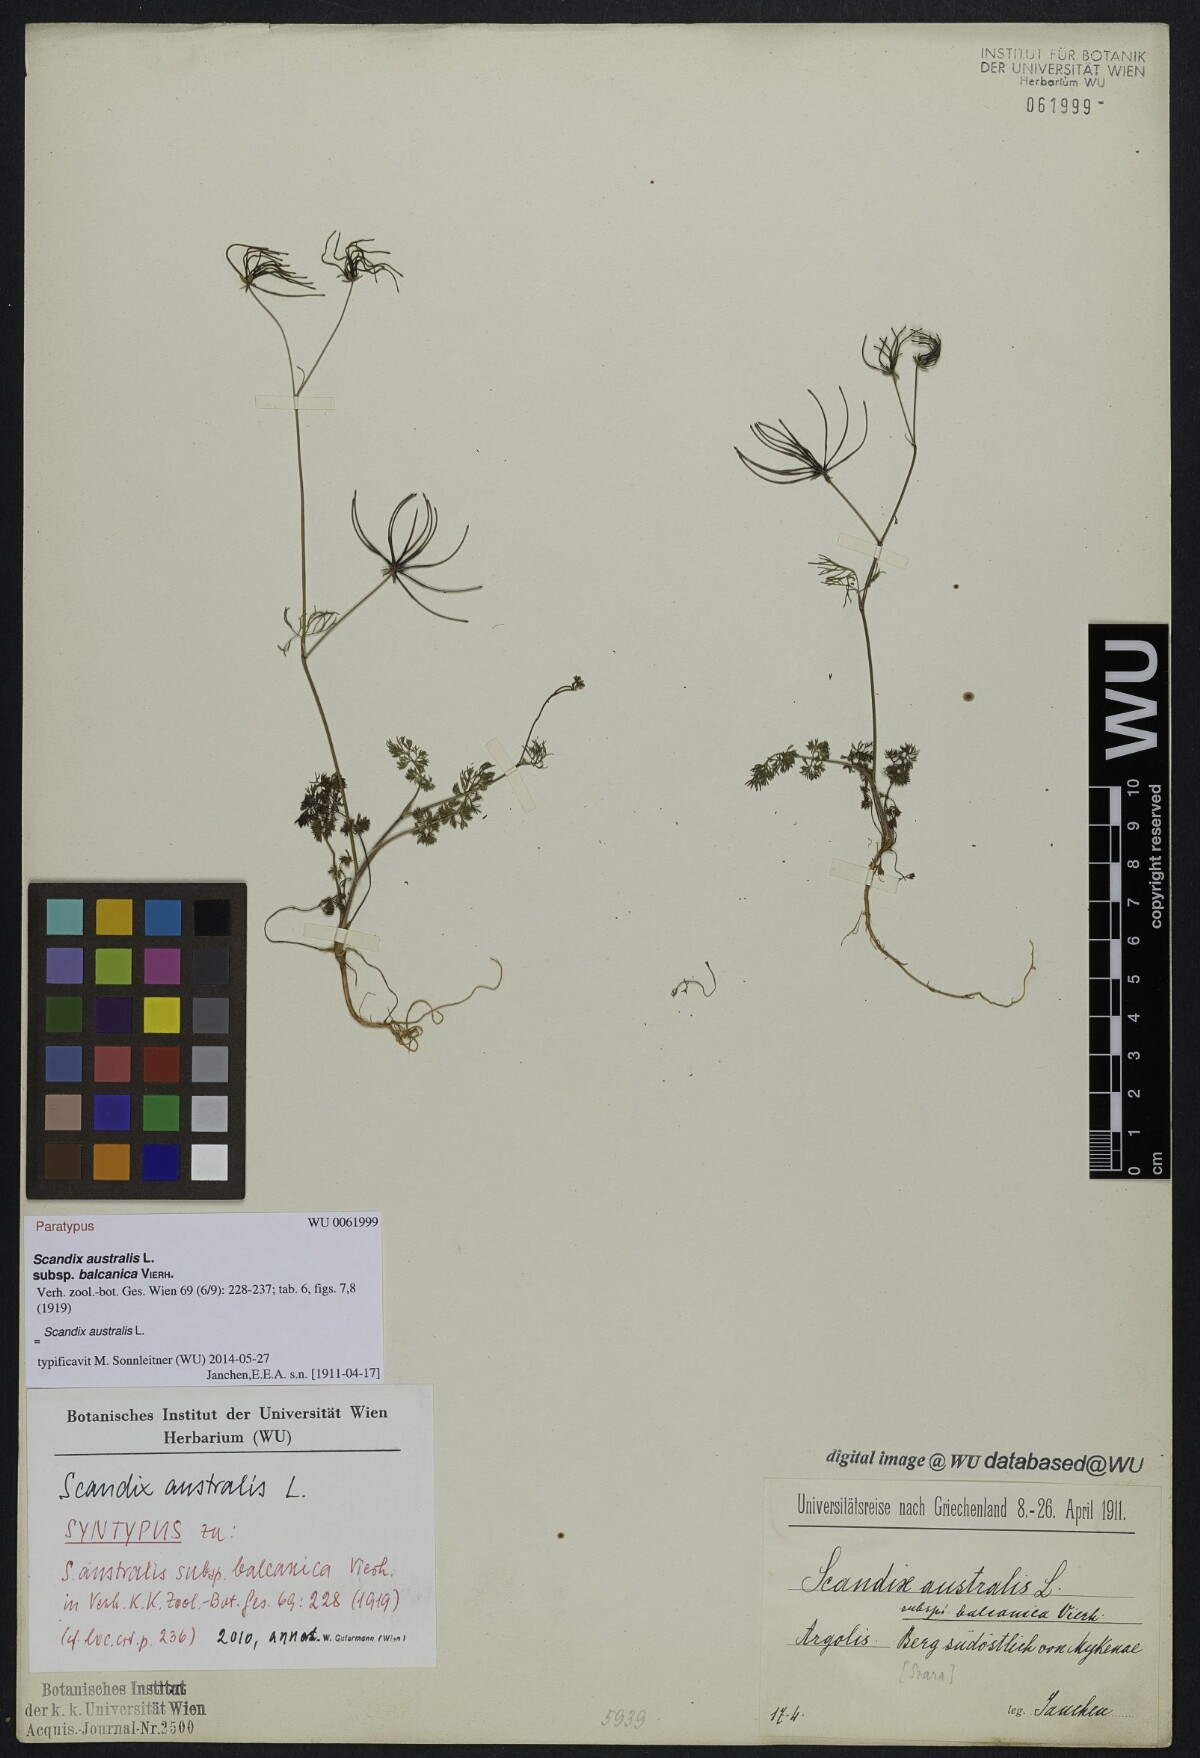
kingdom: Plantae
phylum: Tracheophyta
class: Magnoliopsida
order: Apiales
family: Apiaceae
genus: Scandix
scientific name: Scandix australis
